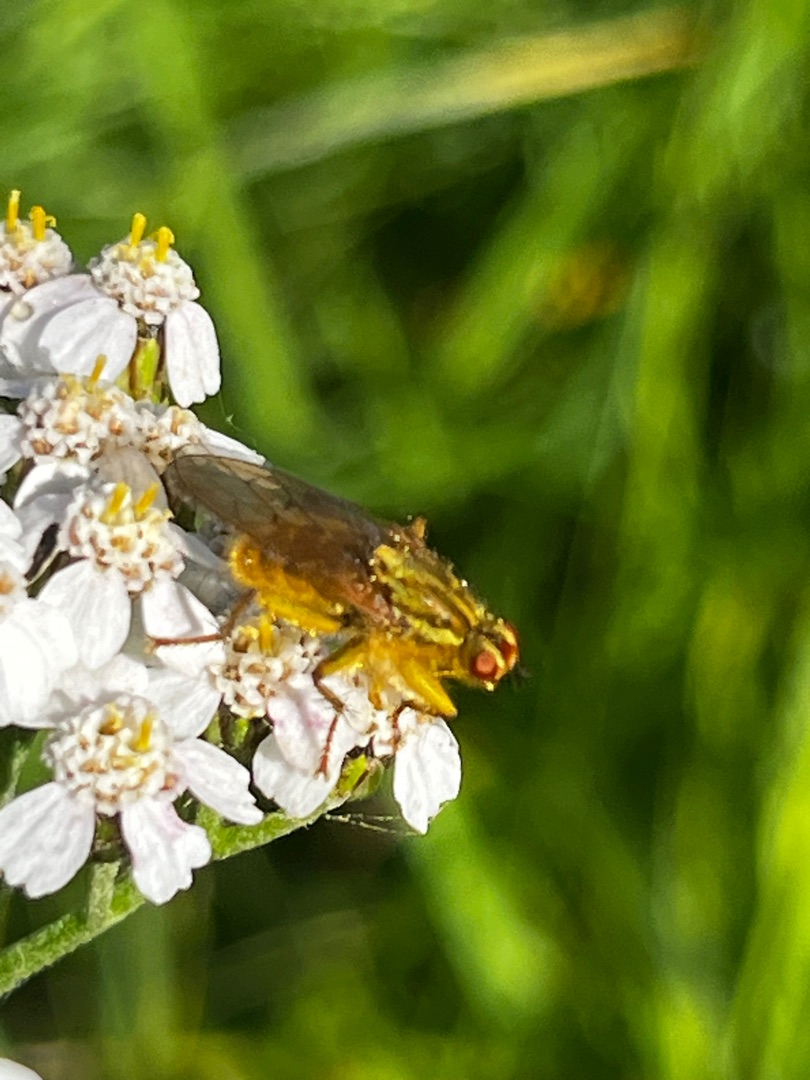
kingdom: Animalia
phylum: Arthropoda
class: Insecta
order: Diptera
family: Scathophagidae
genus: Scathophaga
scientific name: Scathophaga stercoraria
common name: Almindelig gødningsflue
